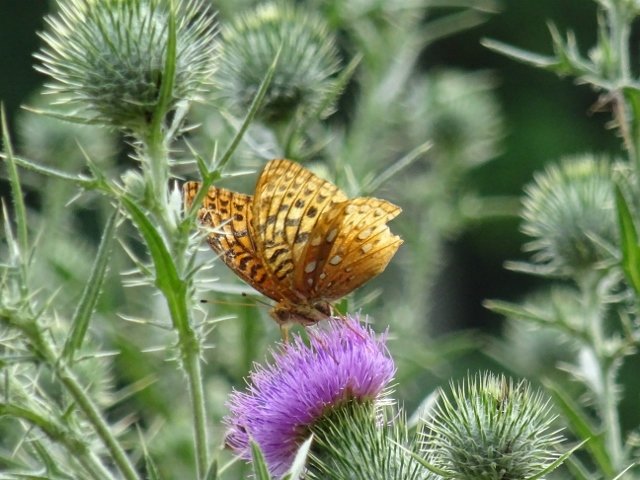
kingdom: Animalia
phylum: Arthropoda
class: Insecta
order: Lepidoptera
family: Nymphalidae
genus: Speyeria
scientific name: Speyeria cybele
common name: Great Spangled Fritillary
